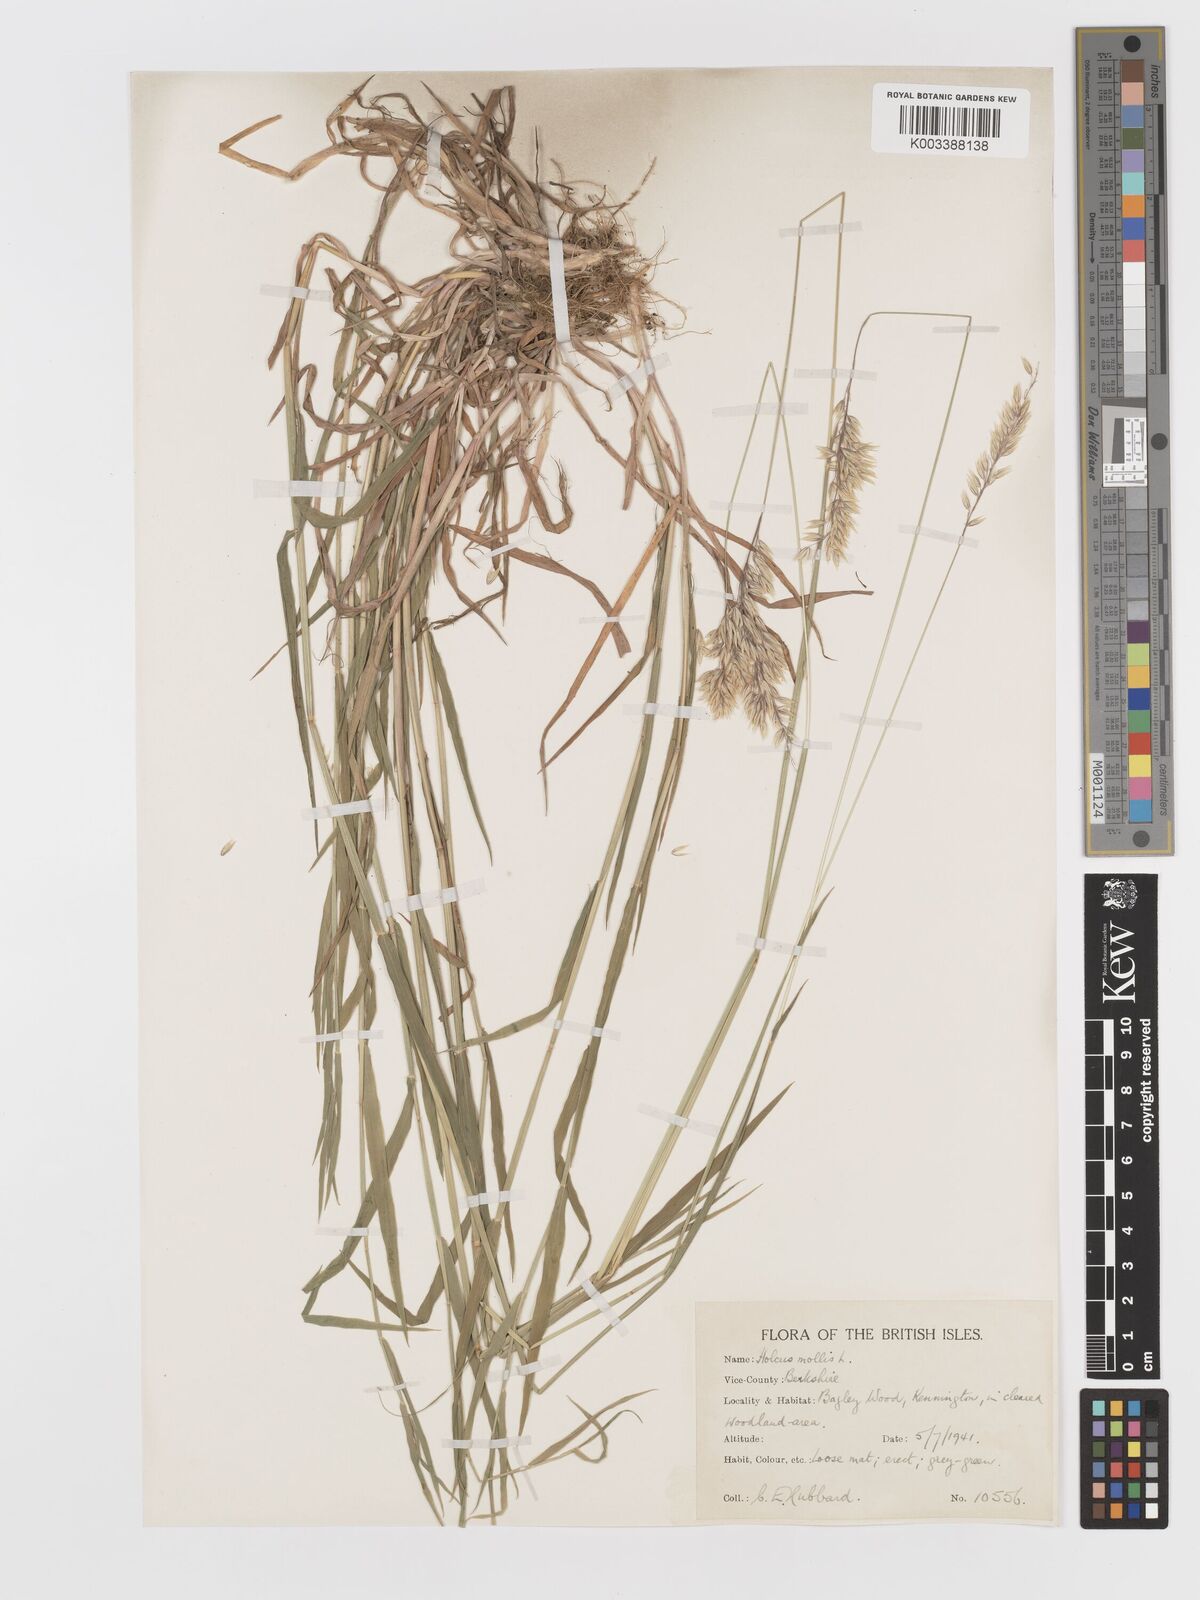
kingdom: Plantae
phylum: Tracheophyta
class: Liliopsida
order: Poales
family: Poaceae
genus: Holcus
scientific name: Holcus mollis
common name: Creeping velvetgrass
